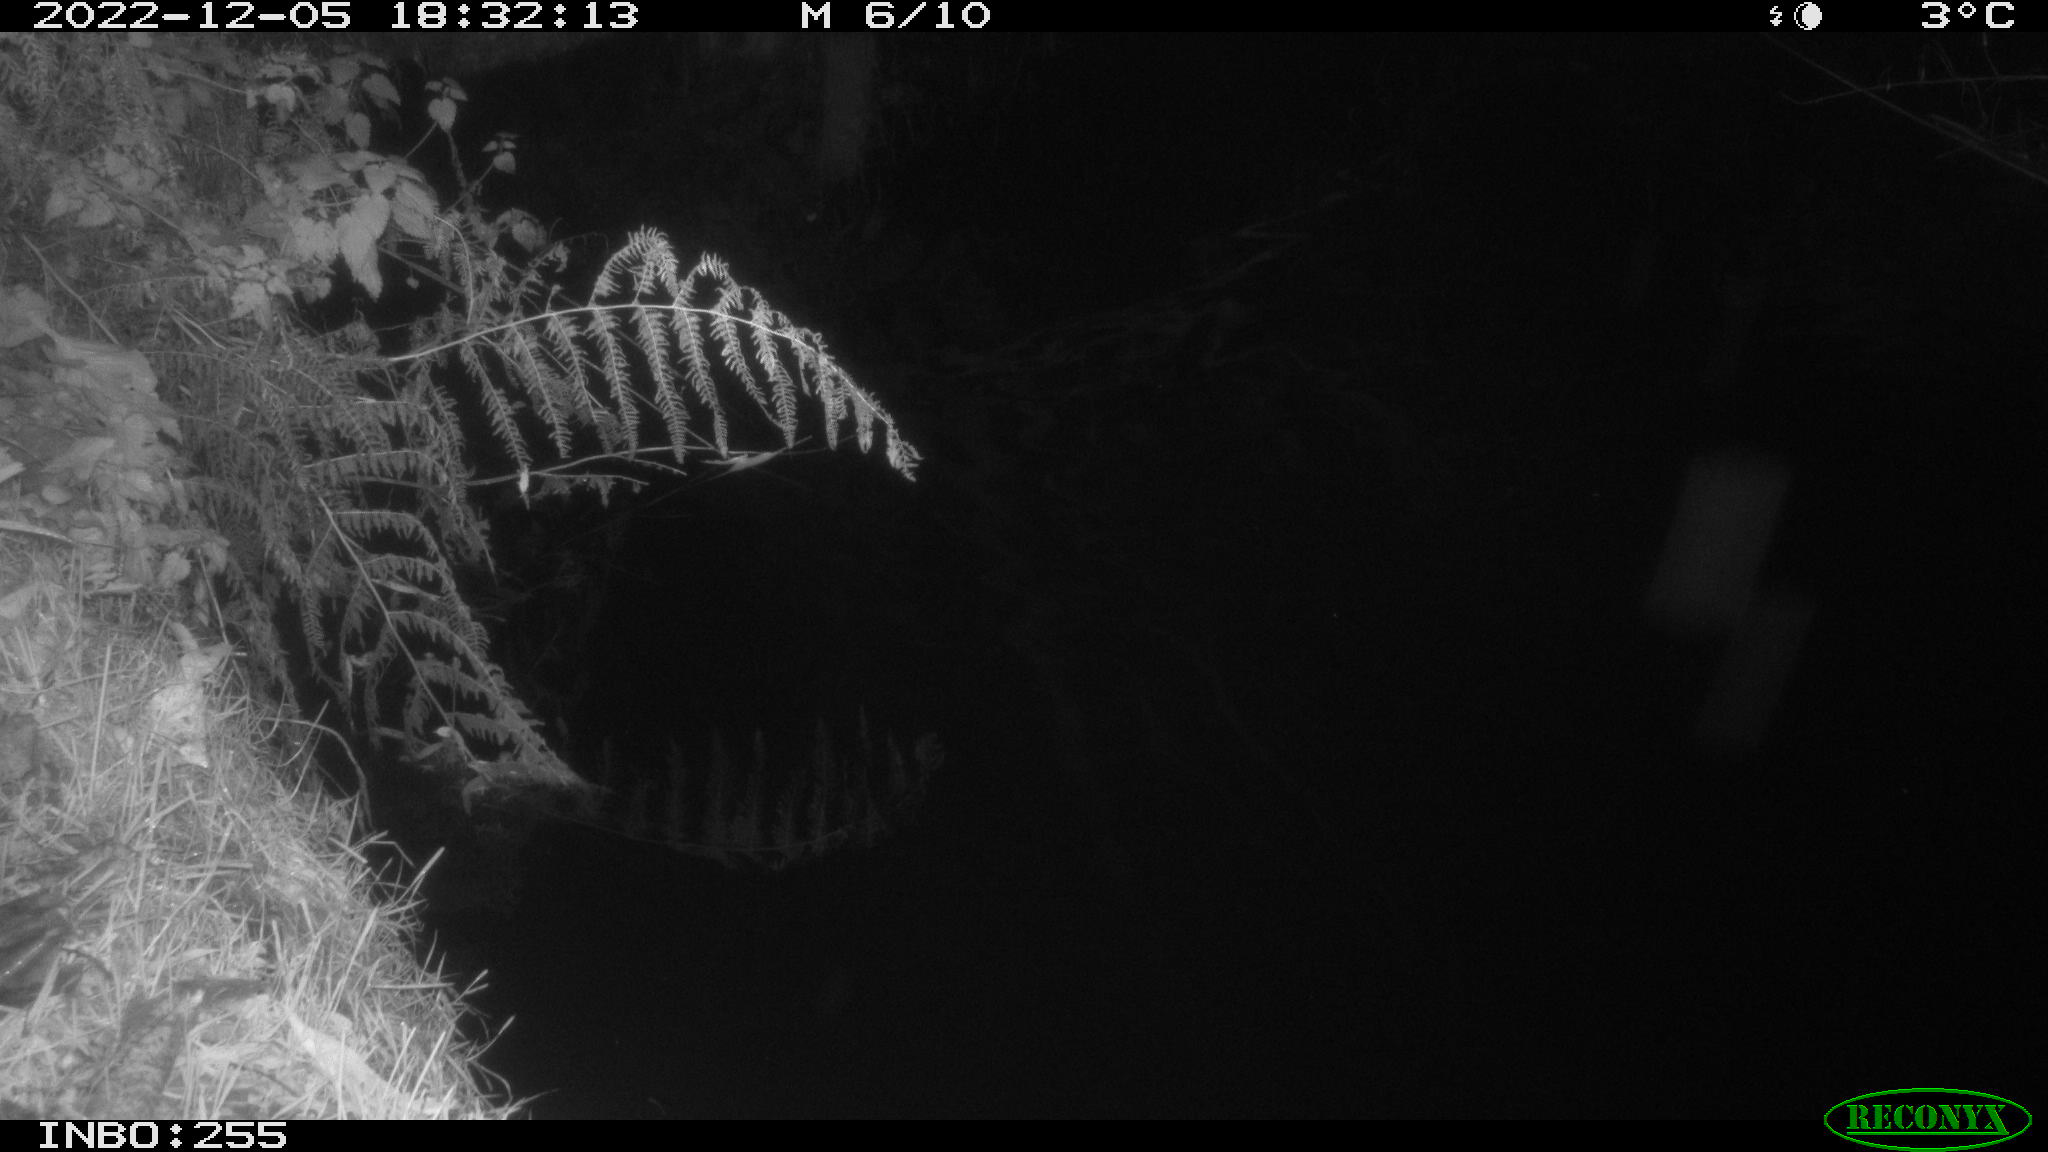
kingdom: Animalia
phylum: Chordata
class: Aves
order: Anseriformes
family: Anatidae
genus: Anas
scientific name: Anas
